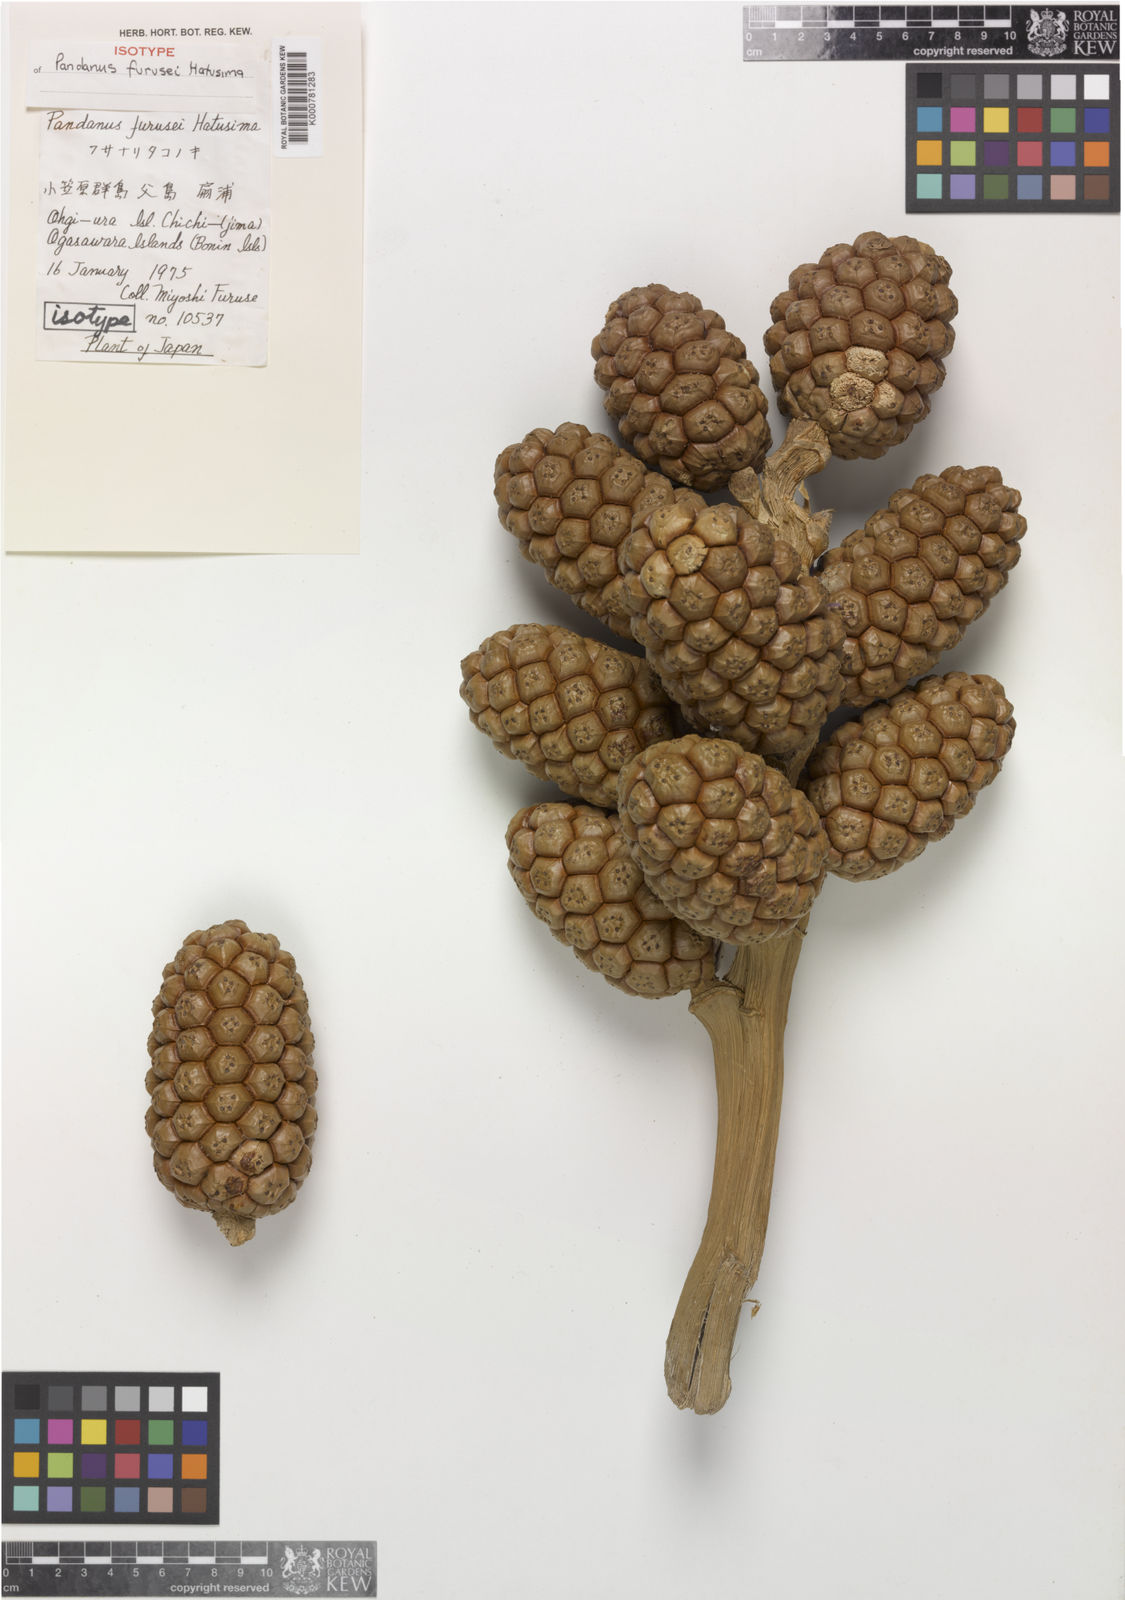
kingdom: Plantae
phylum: Tracheophyta
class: Liliopsida
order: Pandanales
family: Pandanaceae
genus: Pandanus
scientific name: Pandanus concretus
